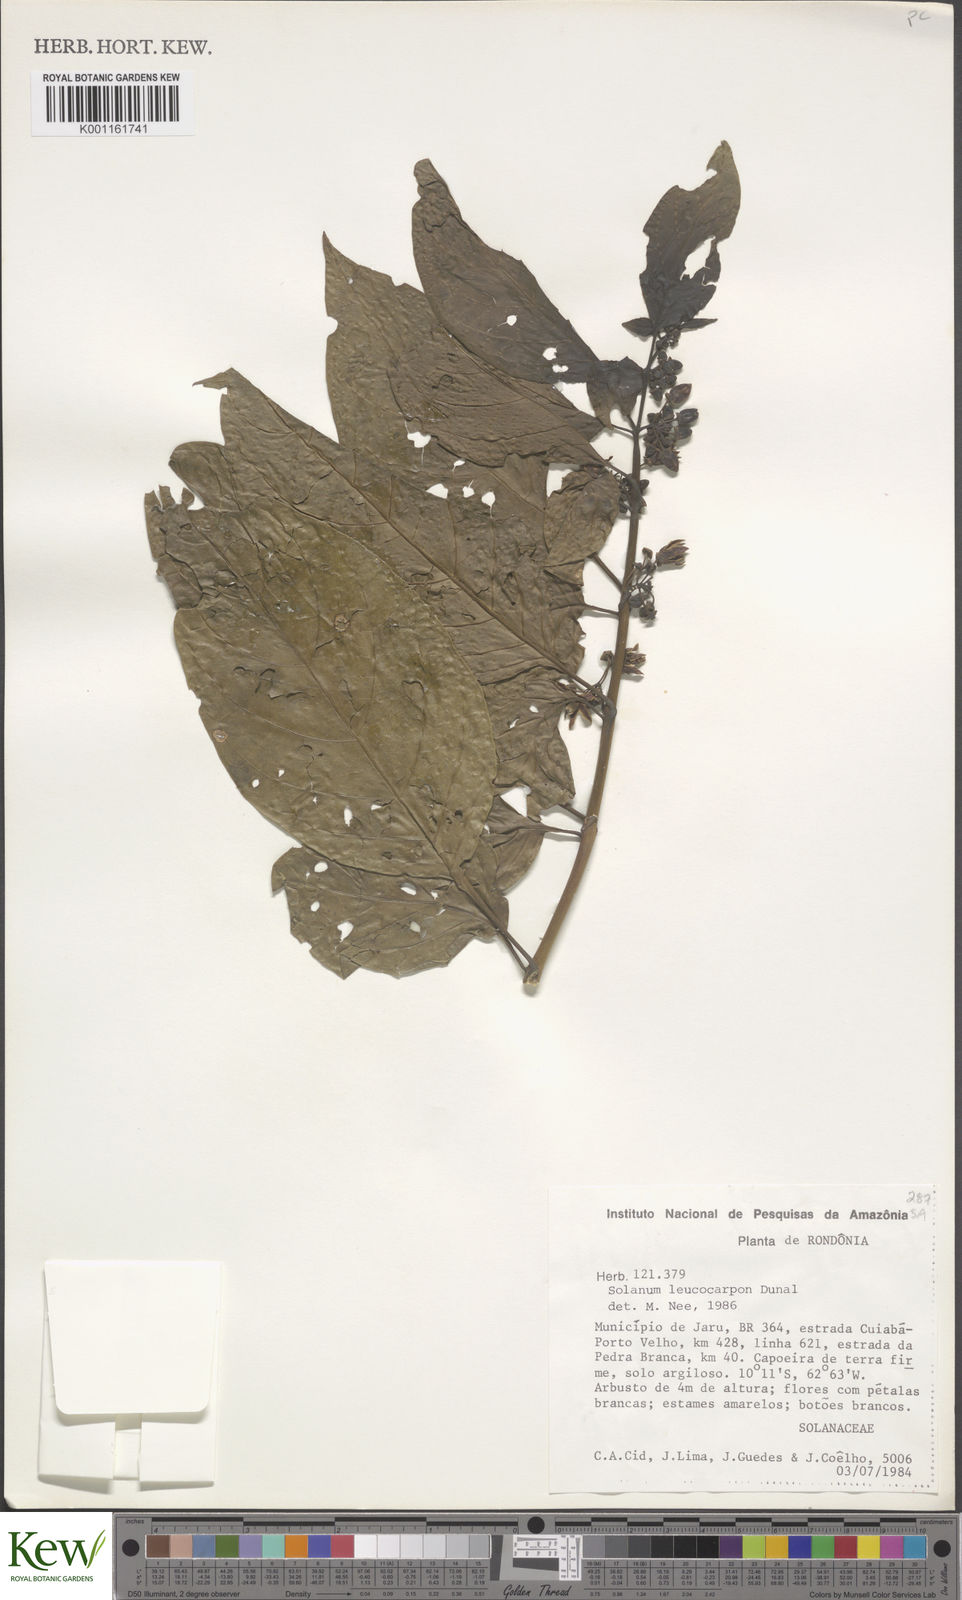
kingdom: Plantae
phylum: Tracheophyta
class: Magnoliopsida
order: Solanales
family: Solanaceae
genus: Solanum
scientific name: Solanum leucocarpon
